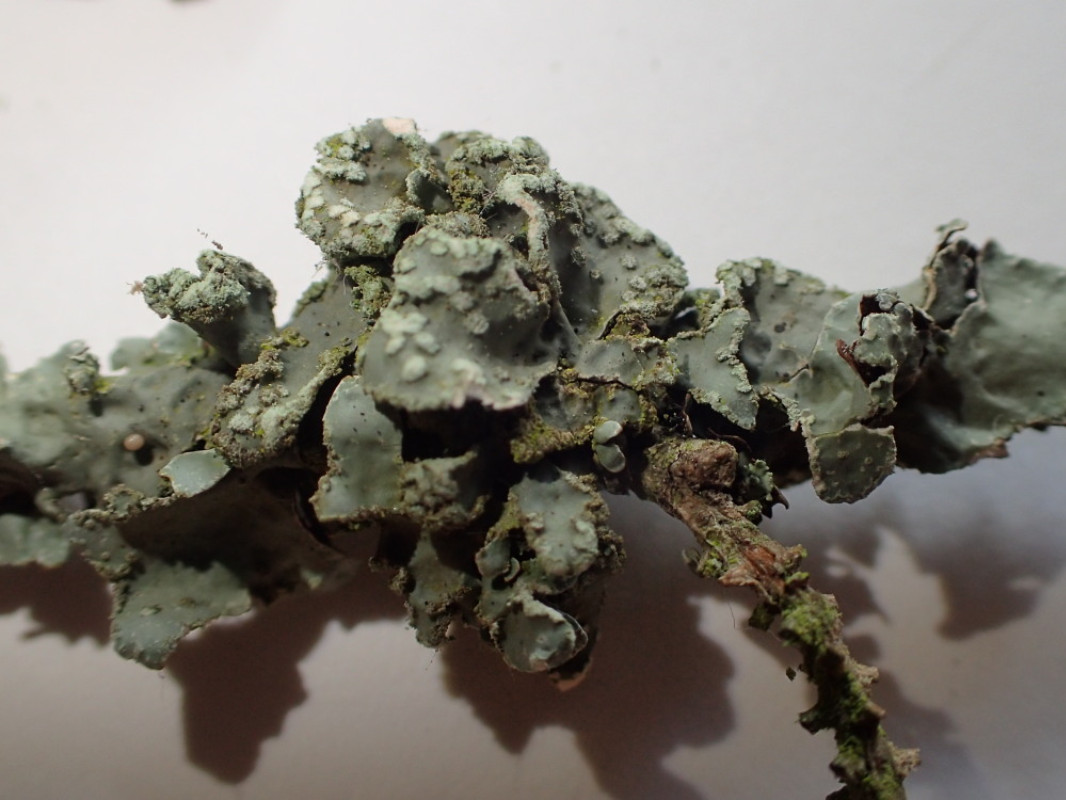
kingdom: Fungi
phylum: Ascomycota
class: Lecanoromycetes
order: Lecanorales
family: Parmeliaceae
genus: Parmelia
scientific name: Parmelia sulcata
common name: rynket skållav
